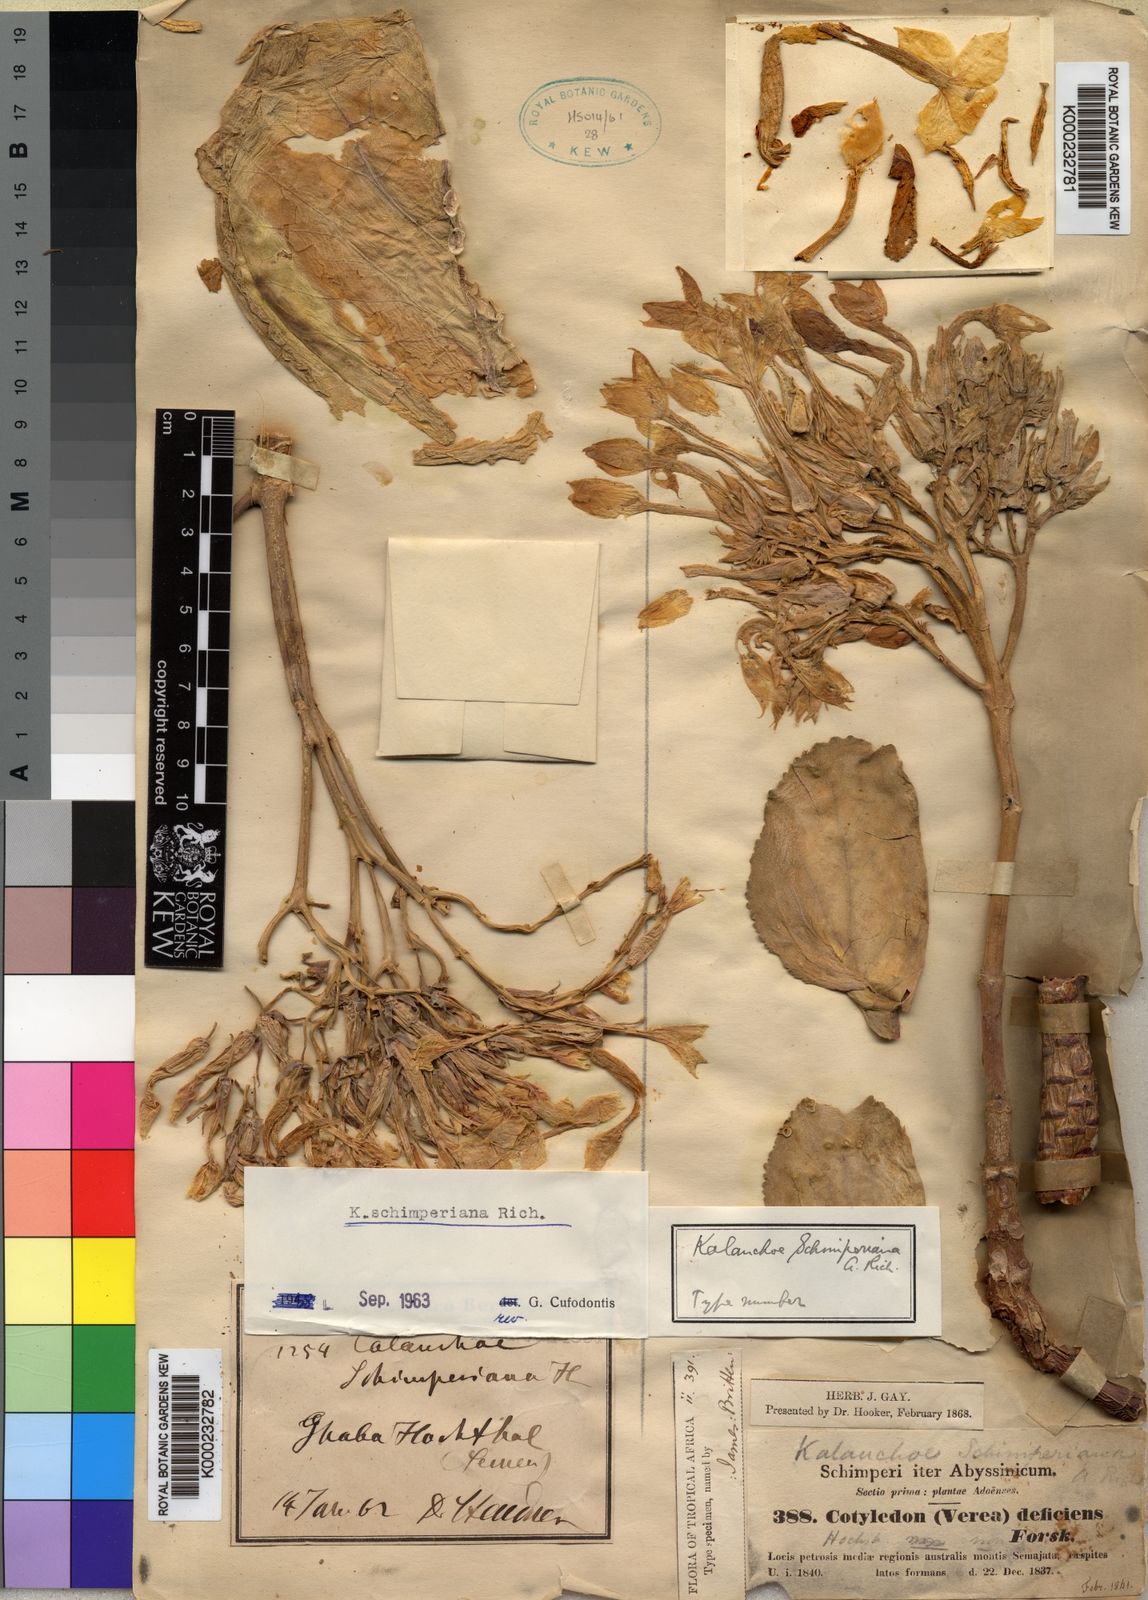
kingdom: Plantae
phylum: Tracheophyta
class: Magnoliopsida
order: Saxifragales
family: Crassulaceae
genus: Kalanchoe
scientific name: Kalanchoe schimperiana
